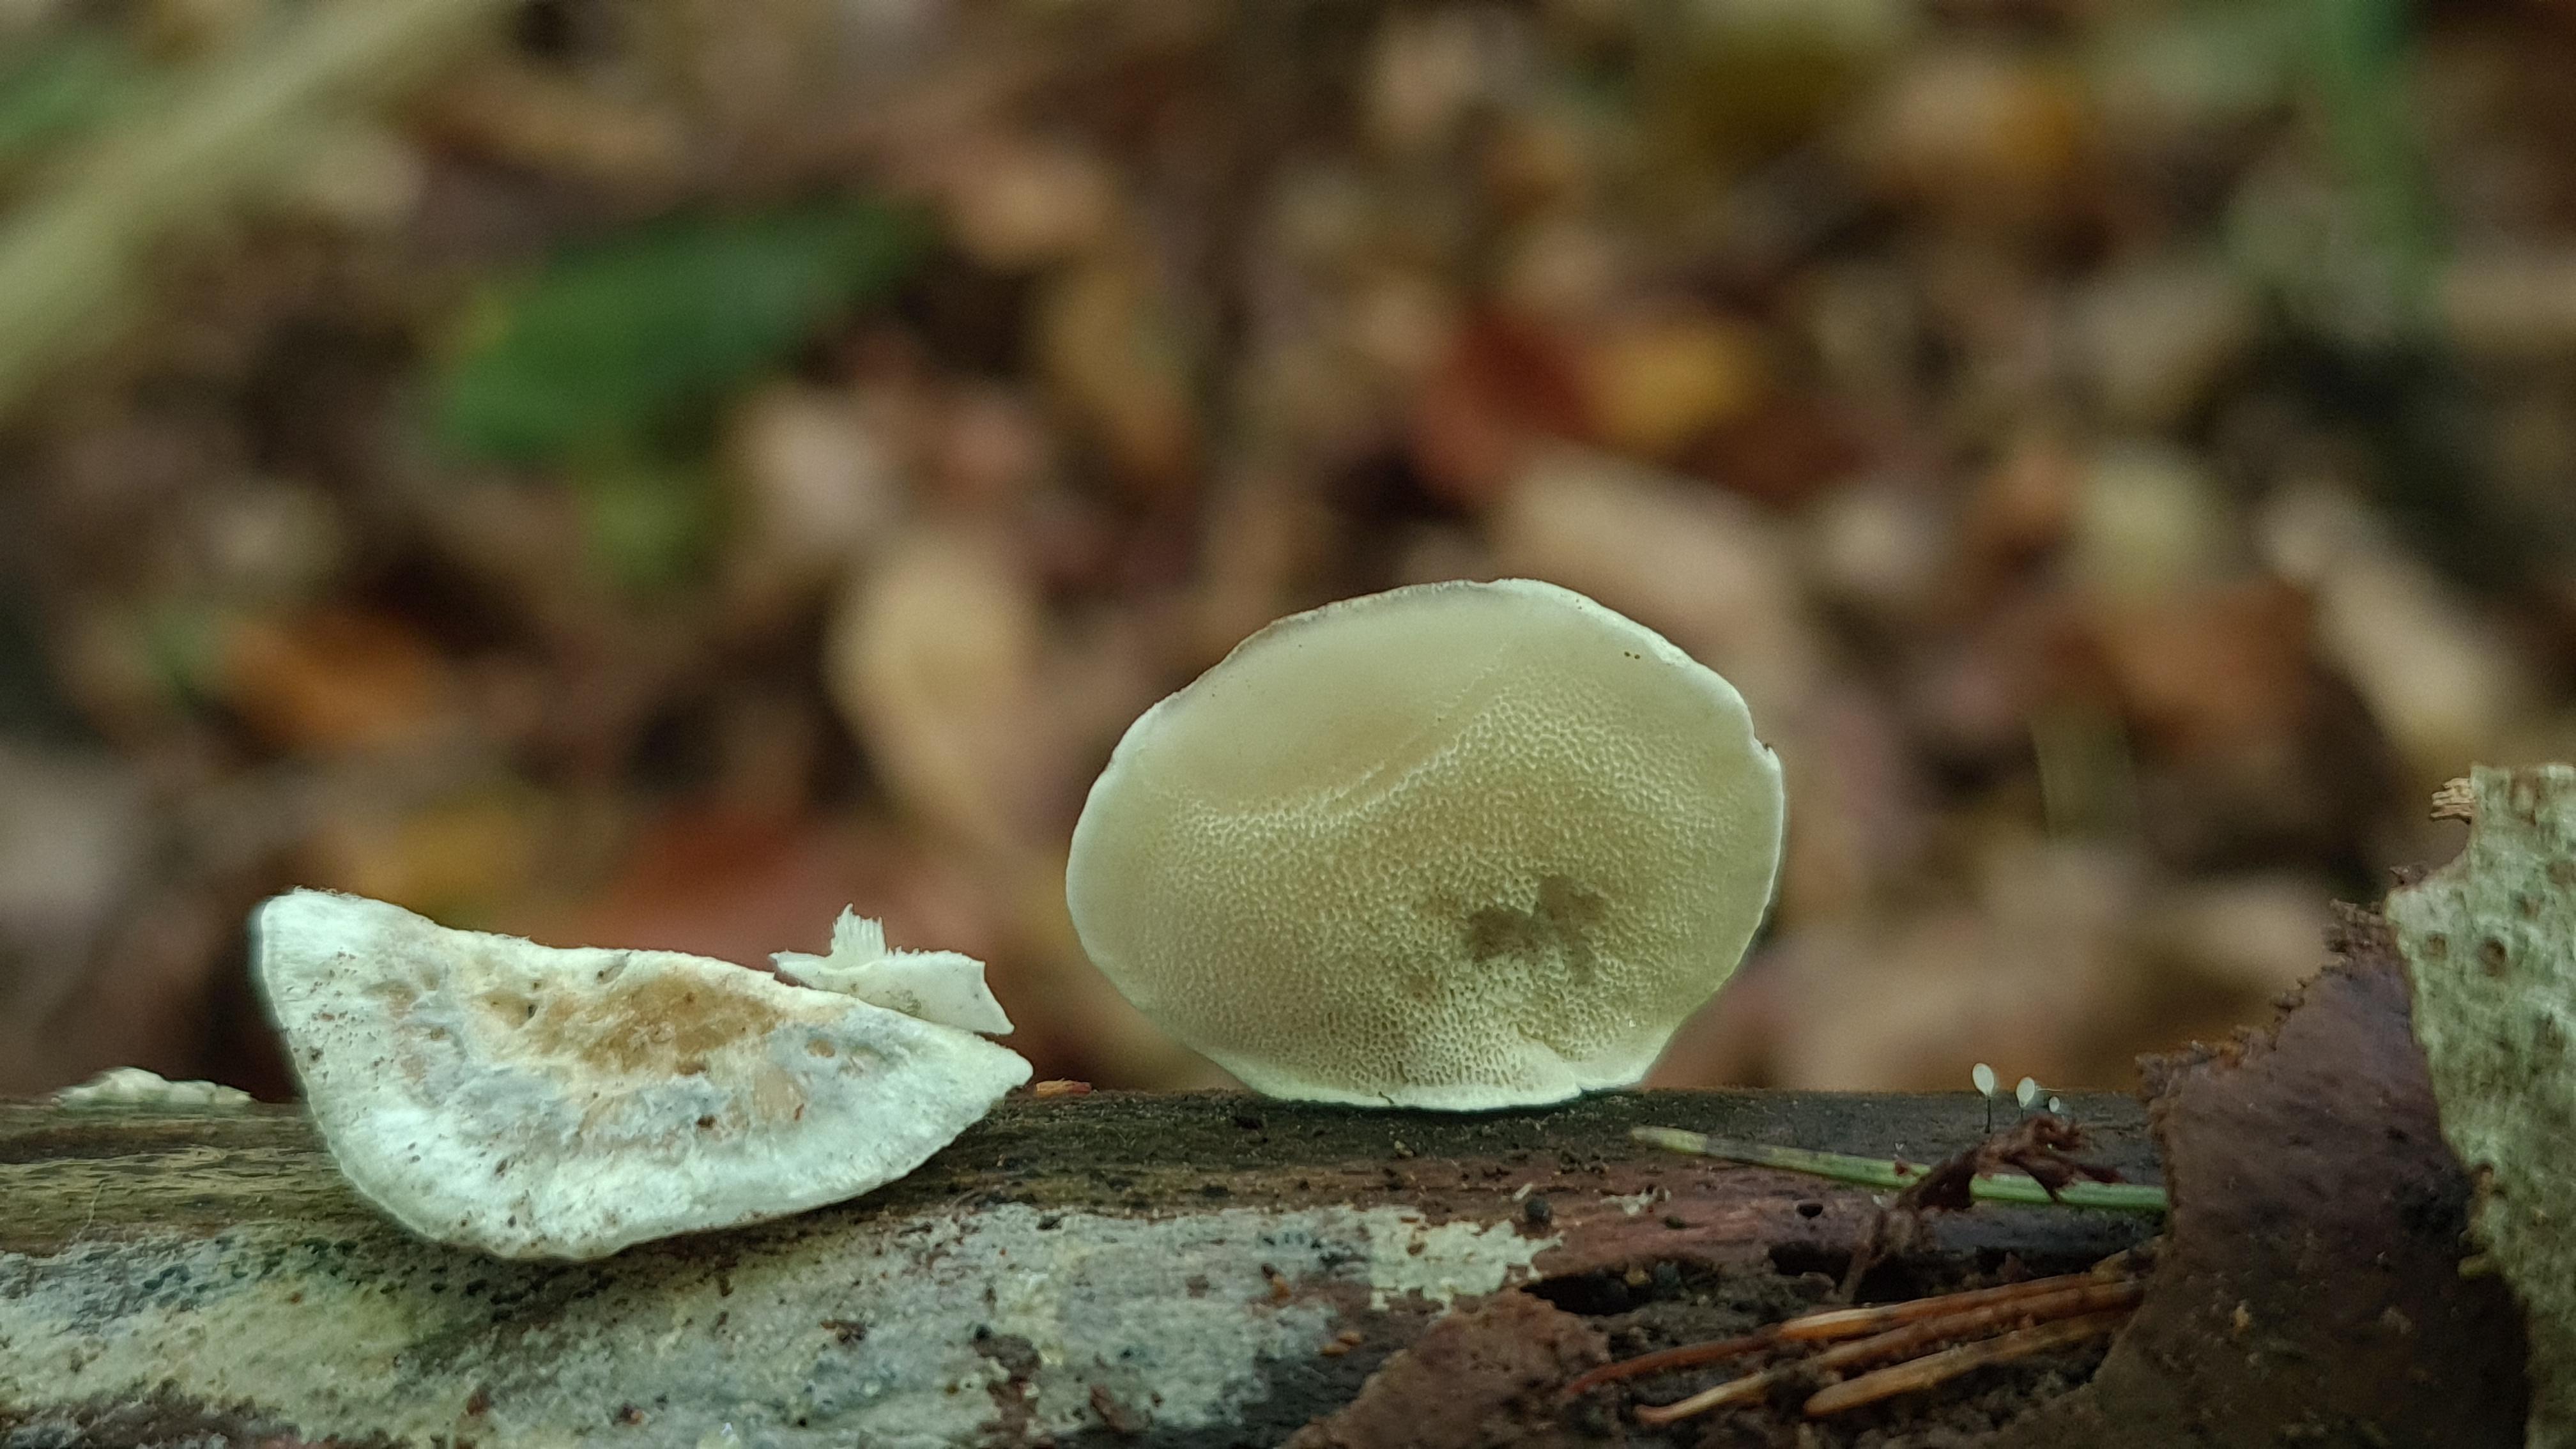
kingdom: Fungi
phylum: Basidiomycota
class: Agaricomycetes
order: Polyporales
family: Polyporaceae
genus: Cyanosporus
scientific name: Cyanosporus alni
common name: blegblå kødporesvamp
